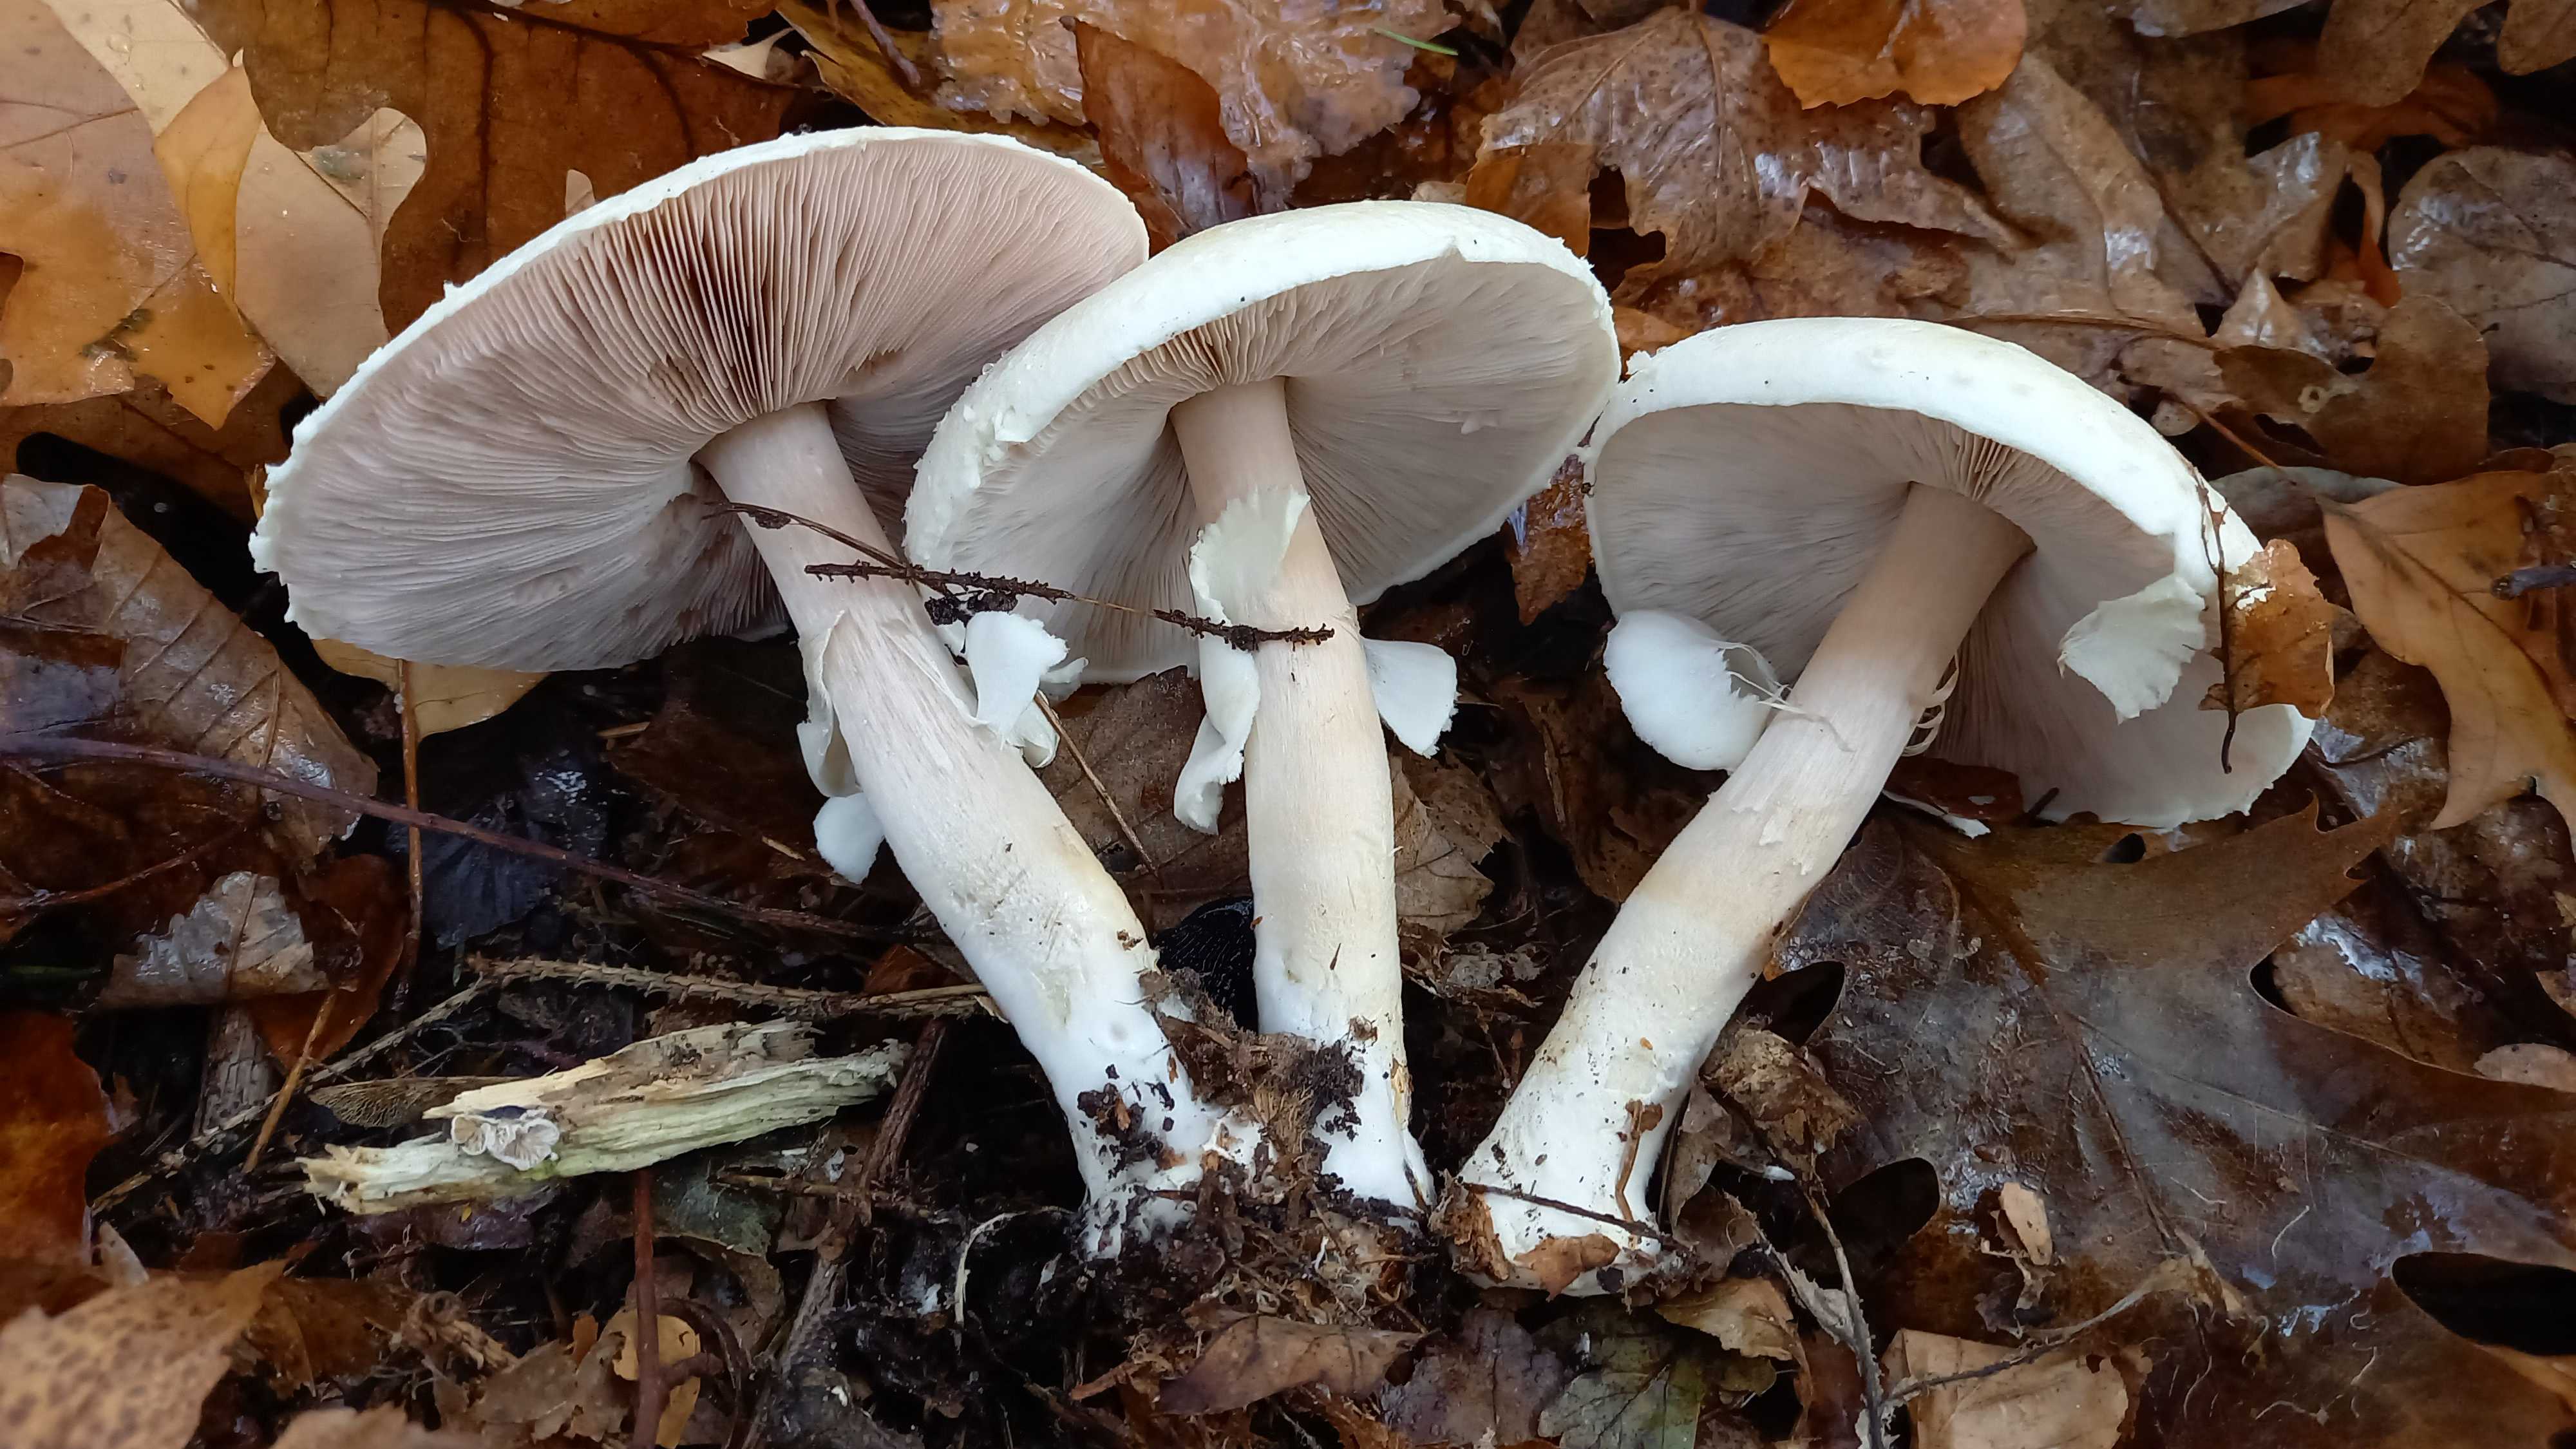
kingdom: Fungi
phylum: Basidiomycota
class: Agaricomycetes
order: Agaricales
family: Agaricaceae
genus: Agaricus
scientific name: Agaricus sylvicola
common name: skiveknoldet champignon
